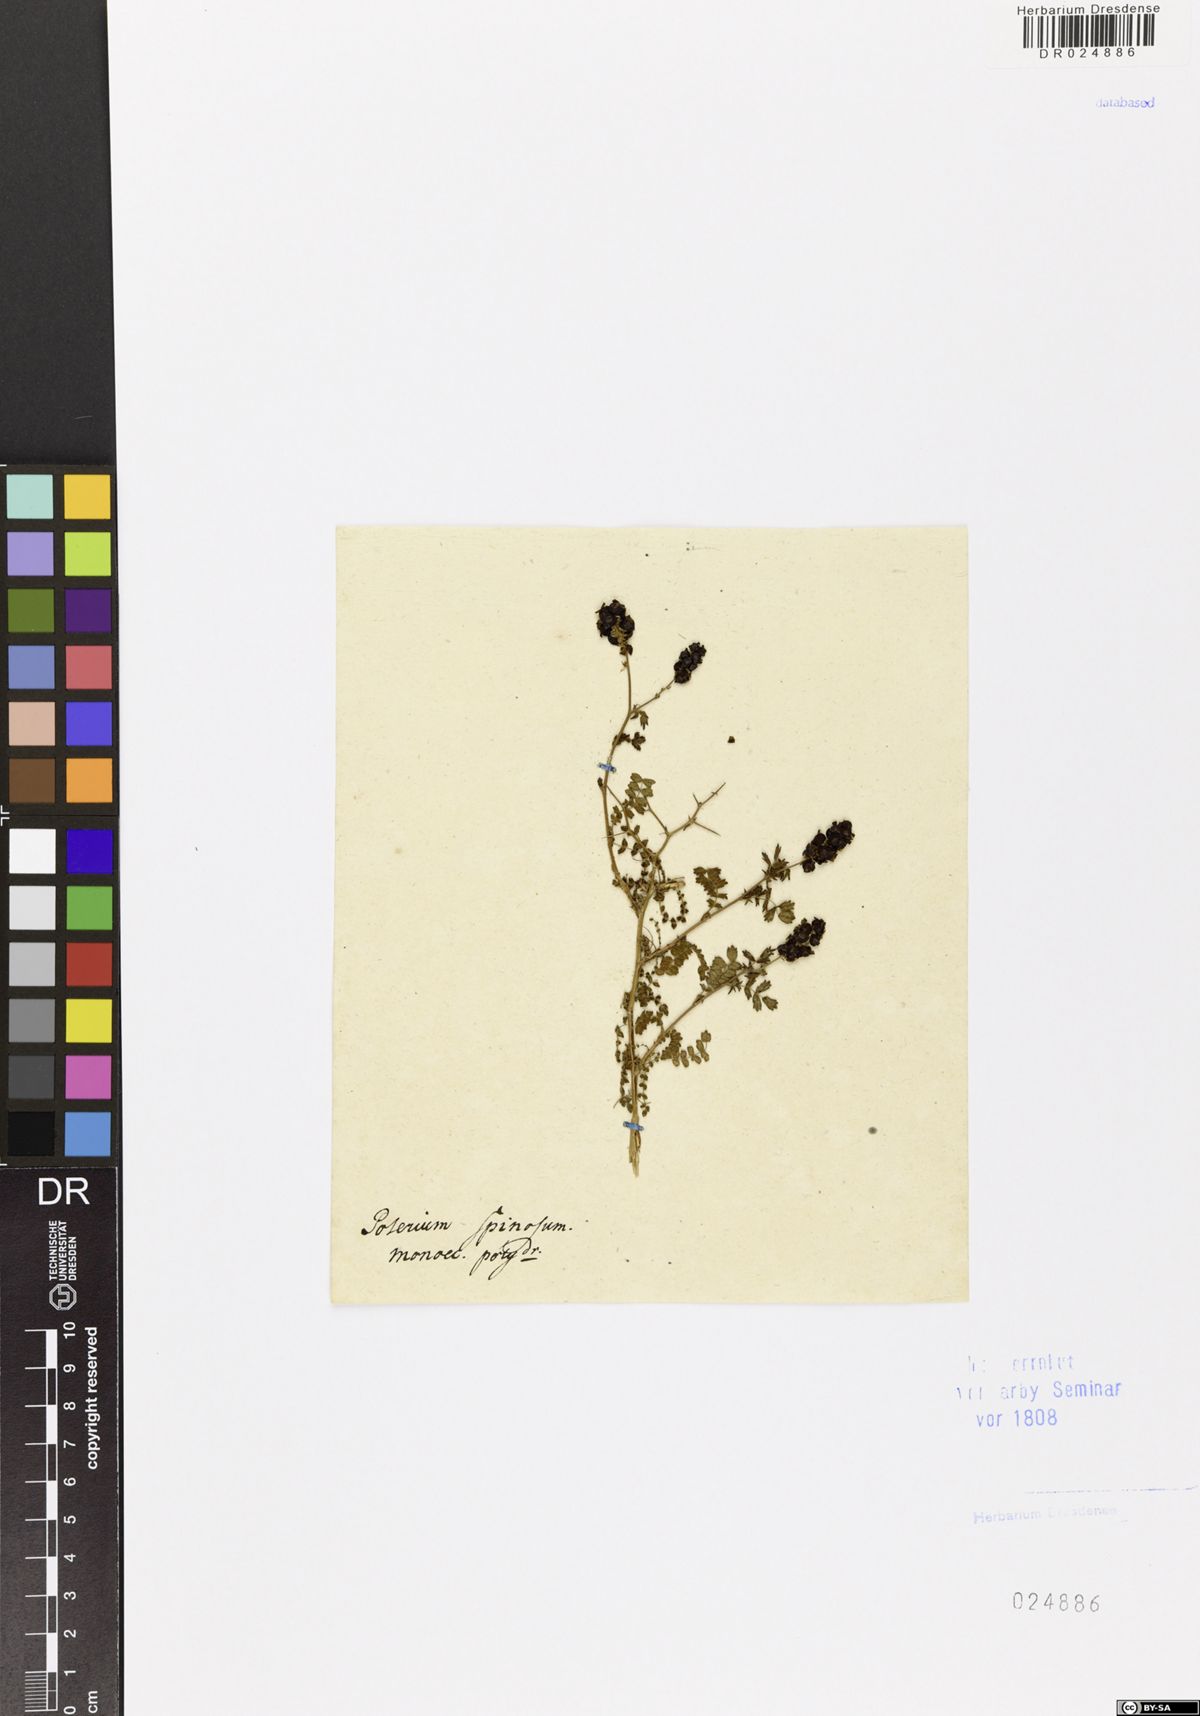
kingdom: Plantae
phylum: Tracheophyta
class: Magnoliopsida
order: Rosales
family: Rosaceae
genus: Sarcopoterium
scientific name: Sarcopoterium spinosum
